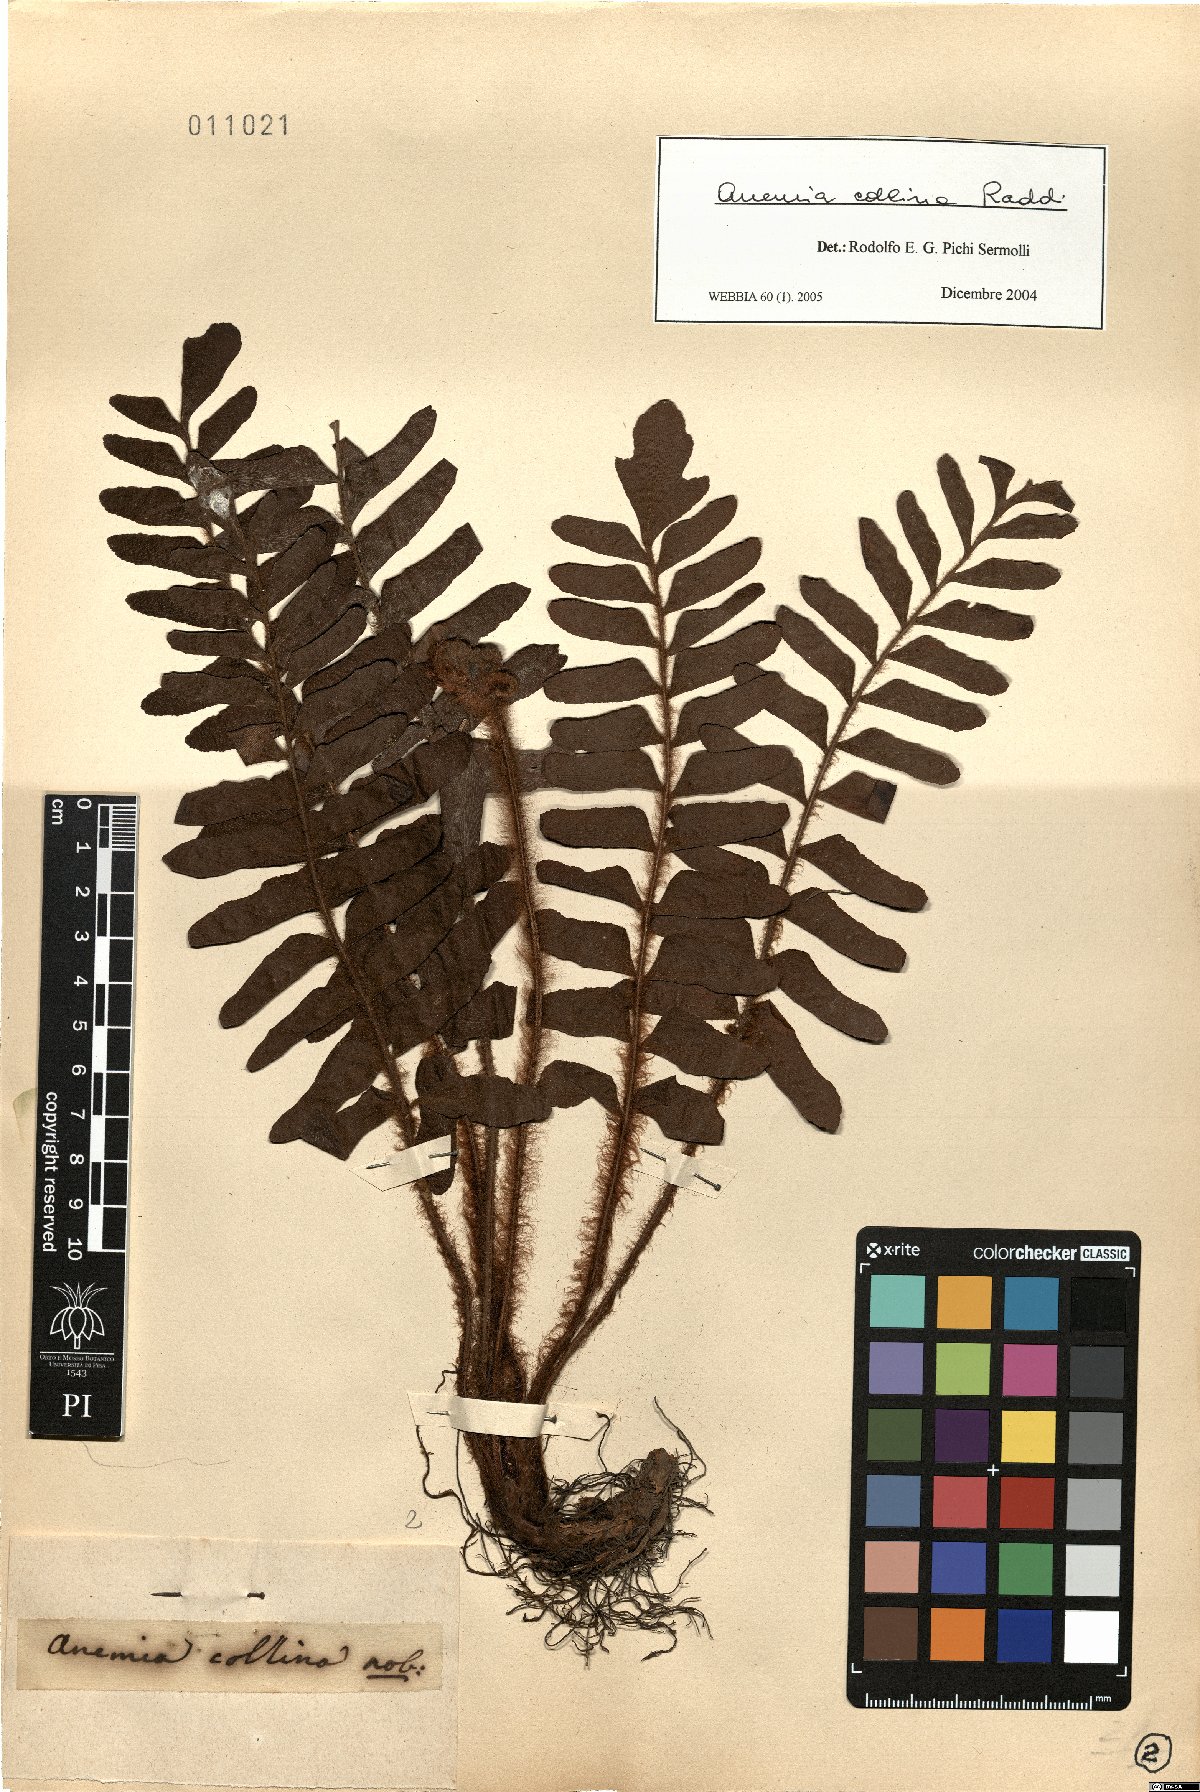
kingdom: Plantae
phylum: Tracheophyta
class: Polypodiopsida
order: Schizaeales
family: Anemiaceae
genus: Anemia
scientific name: Anemia collina
